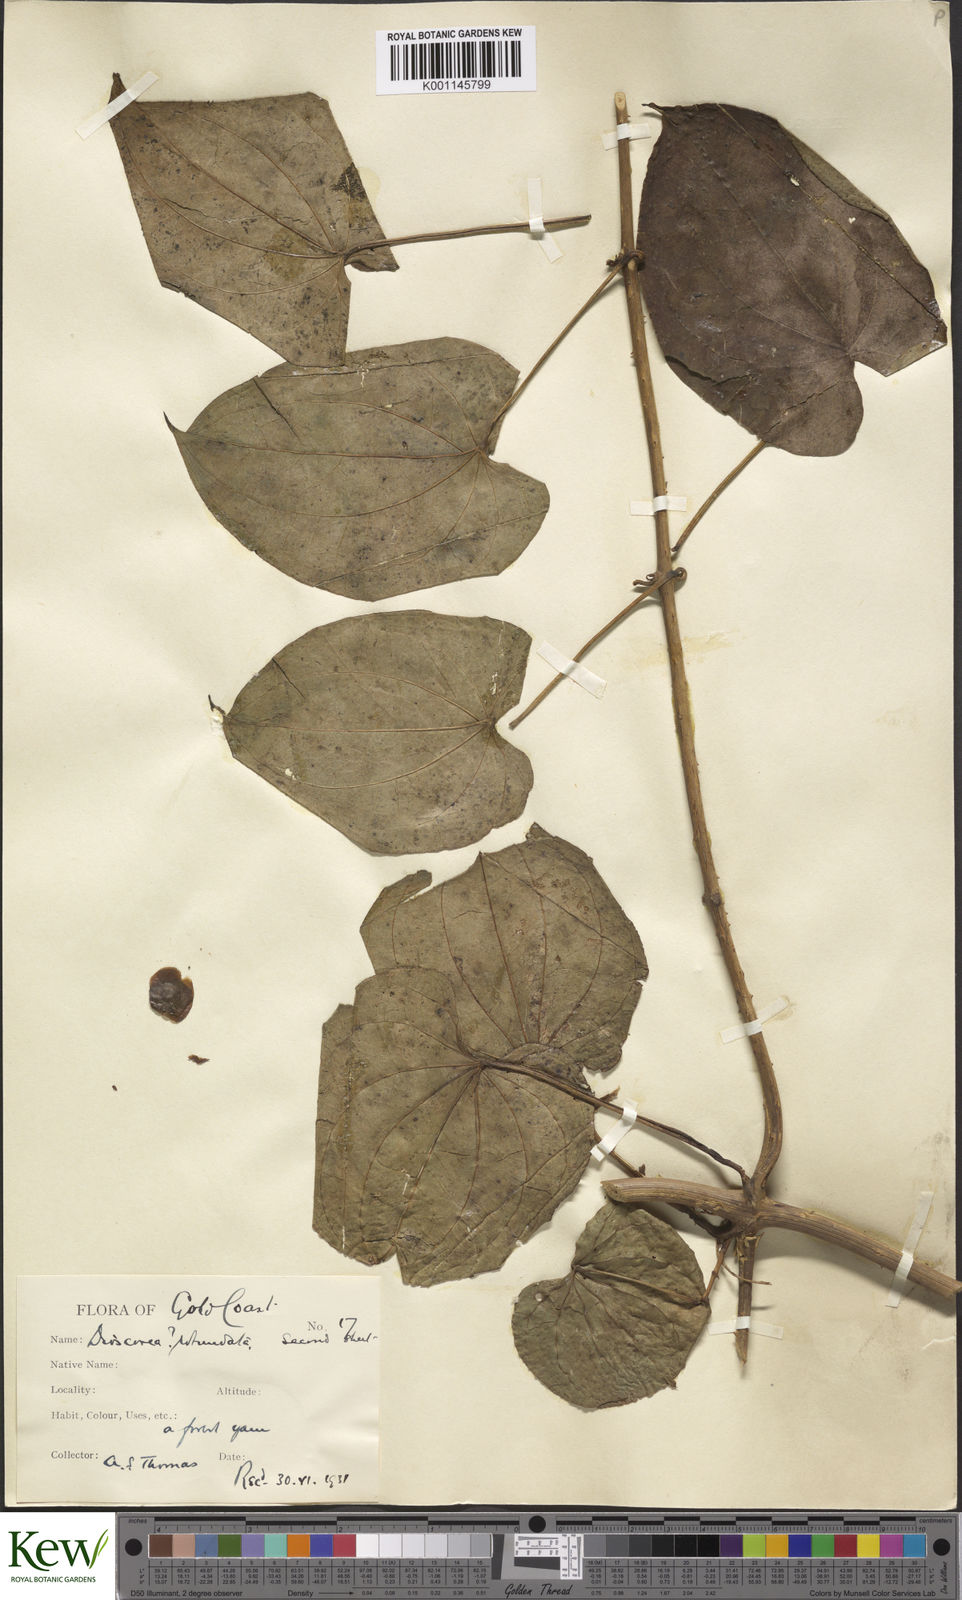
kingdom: Plantae
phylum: Tracheophyta
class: Liliopsida
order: Dioscoreales
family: Dioscoreaceae
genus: Dioscorea
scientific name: Dioscorea cayenensis
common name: Attoto yam
